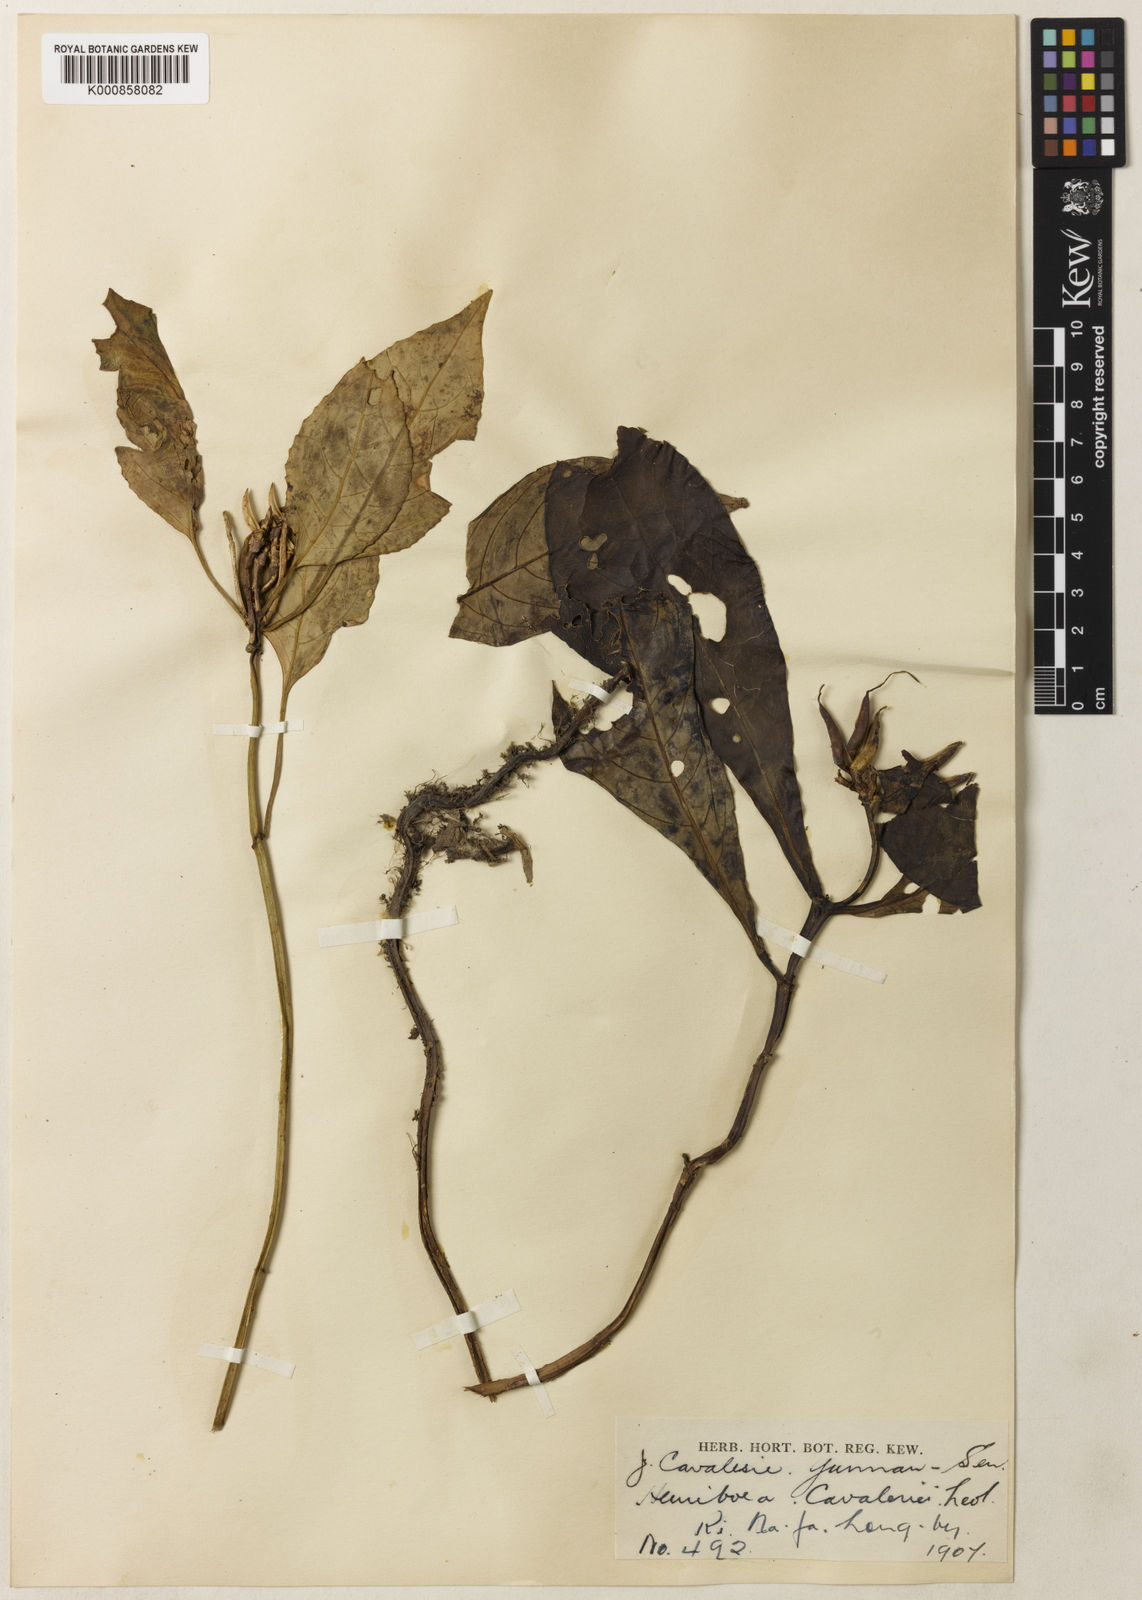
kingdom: Plantae
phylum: Tracheophyta
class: Magnoliopsida
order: Lamiales
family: Gesneriaceae
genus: Hemiboea
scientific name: Hemiboea
